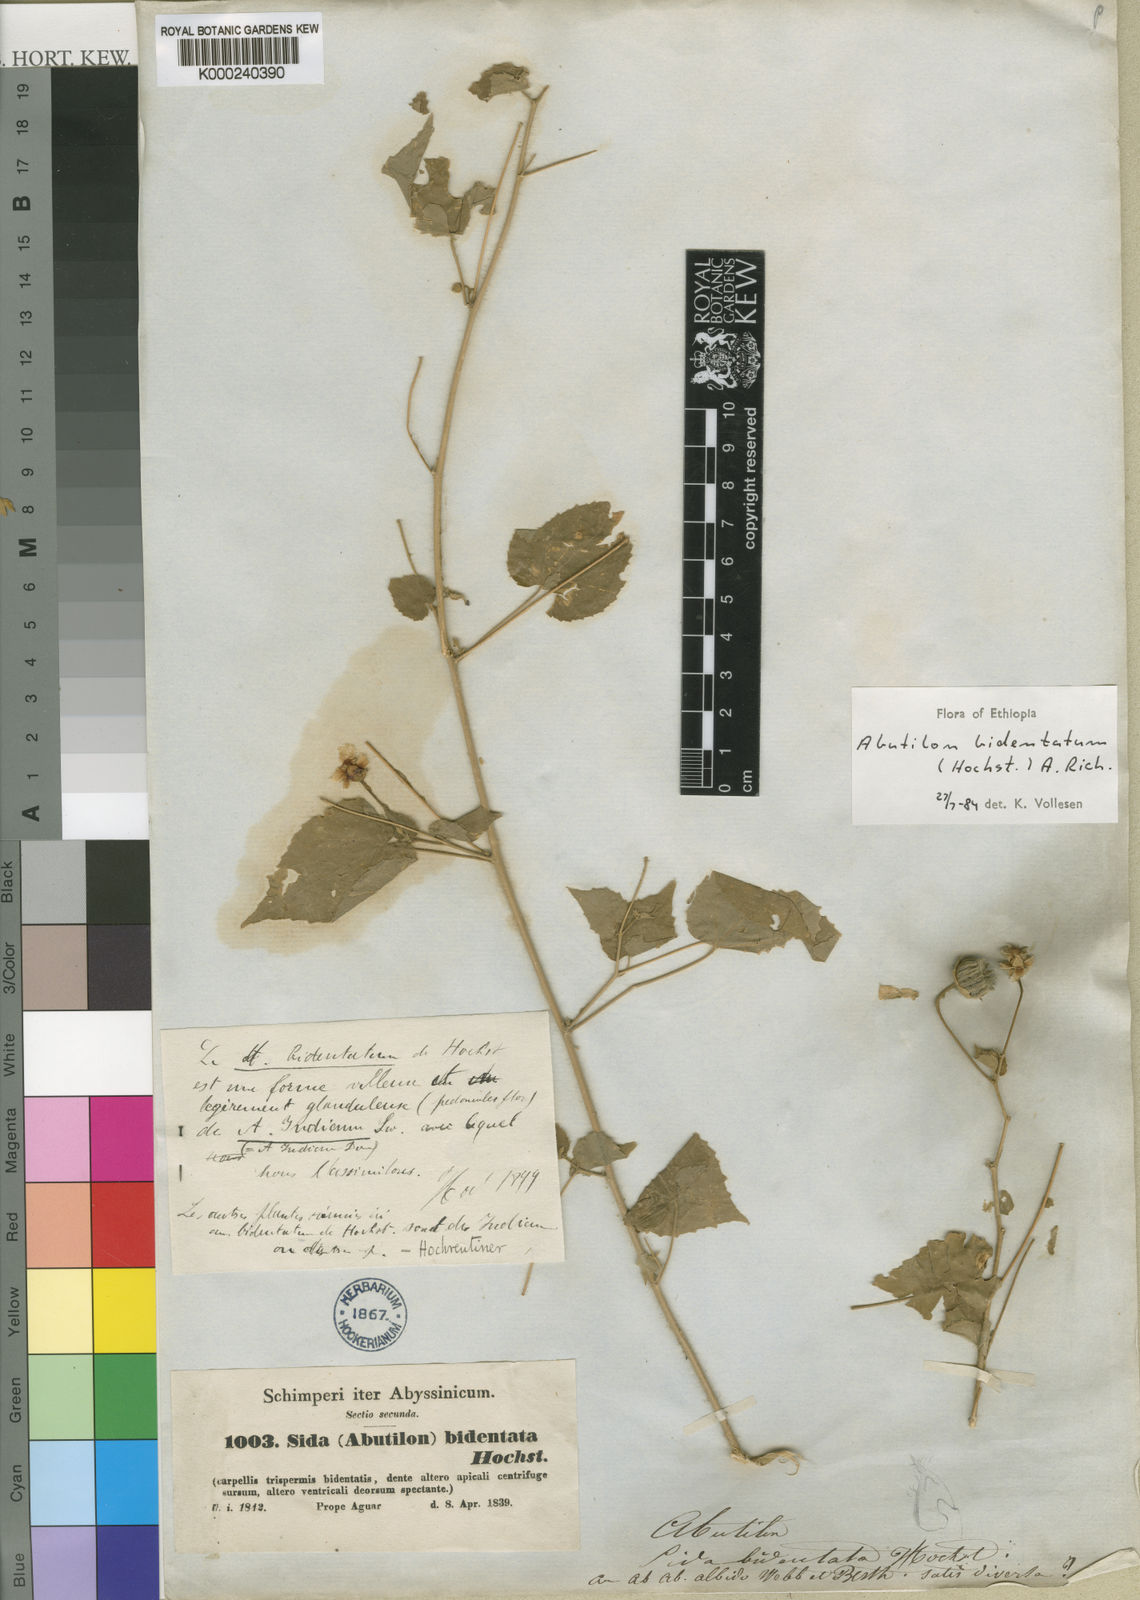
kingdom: Plantae
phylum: Tracheophyta
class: Magnoliopsida
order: Malvales
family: Malvaceae
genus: Abutilon
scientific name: Abutilon bidentatum
